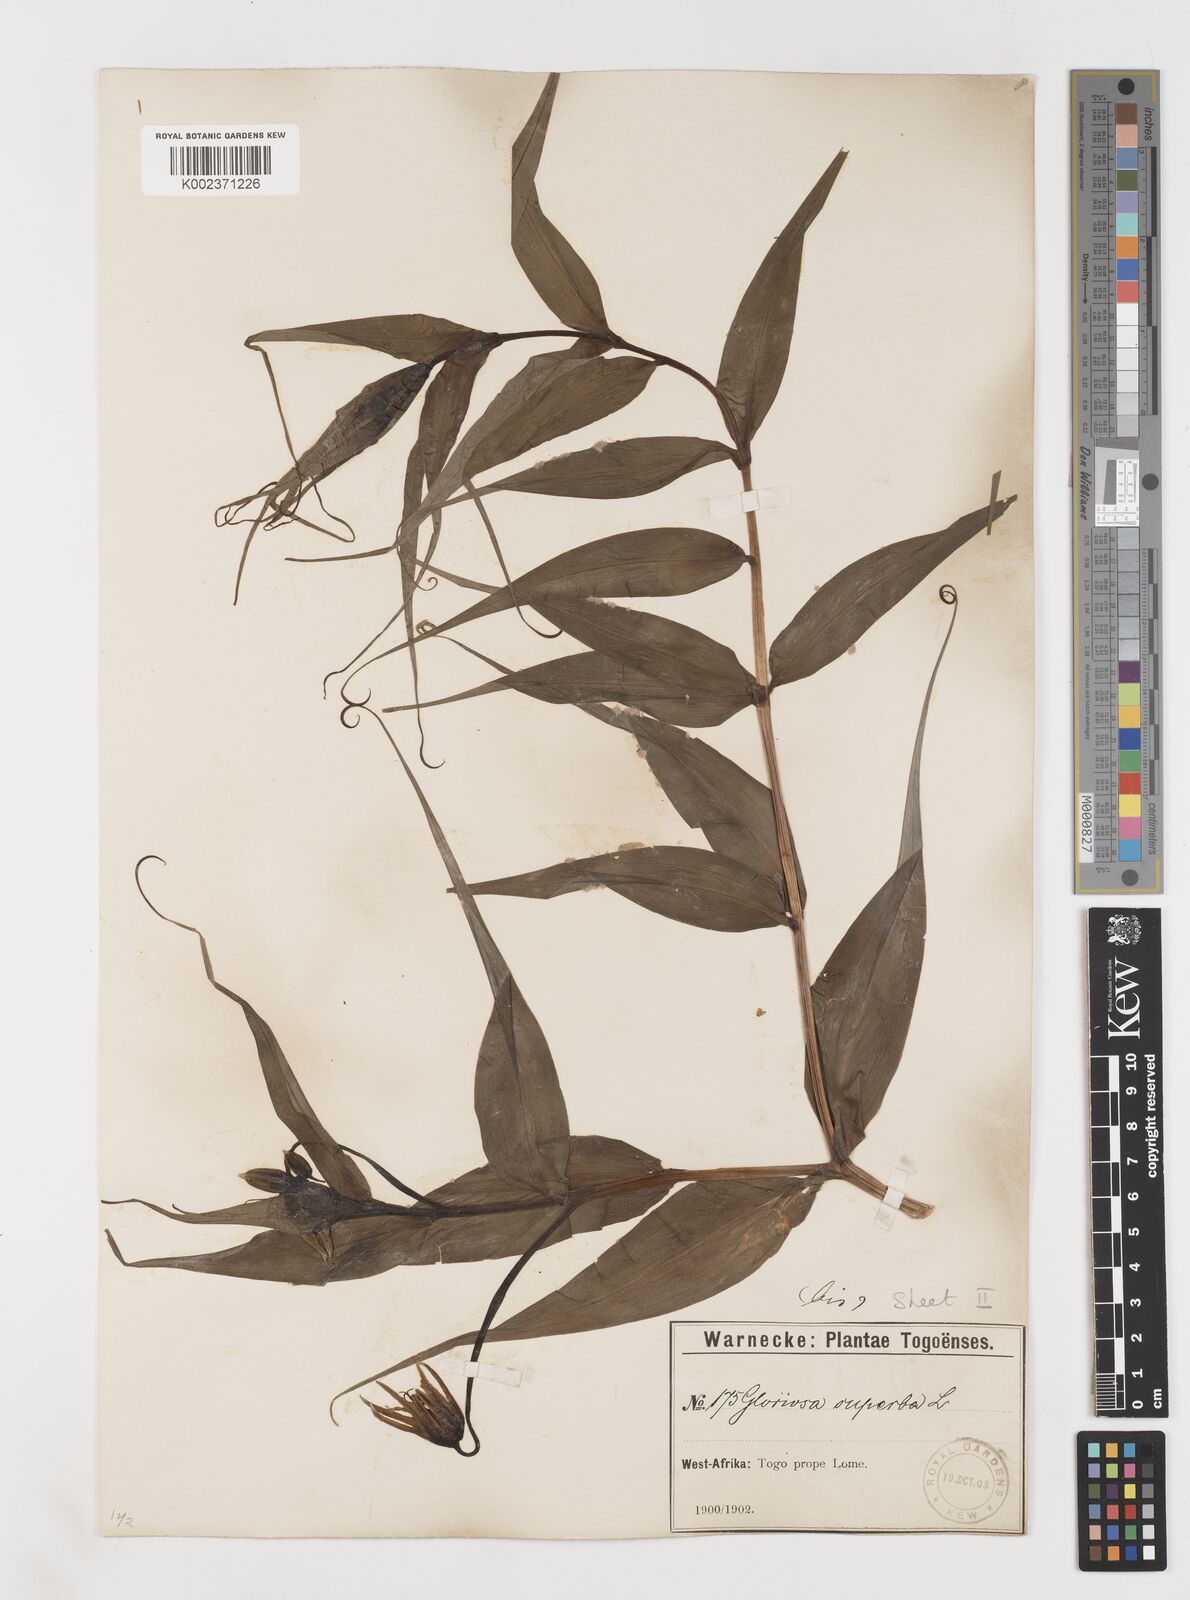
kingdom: Plantae
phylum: Tracheophyta
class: Liliopsida
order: Liliales
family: Colchicaceae
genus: Gloriosa
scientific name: Gloriosa superba
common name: Flame lily
